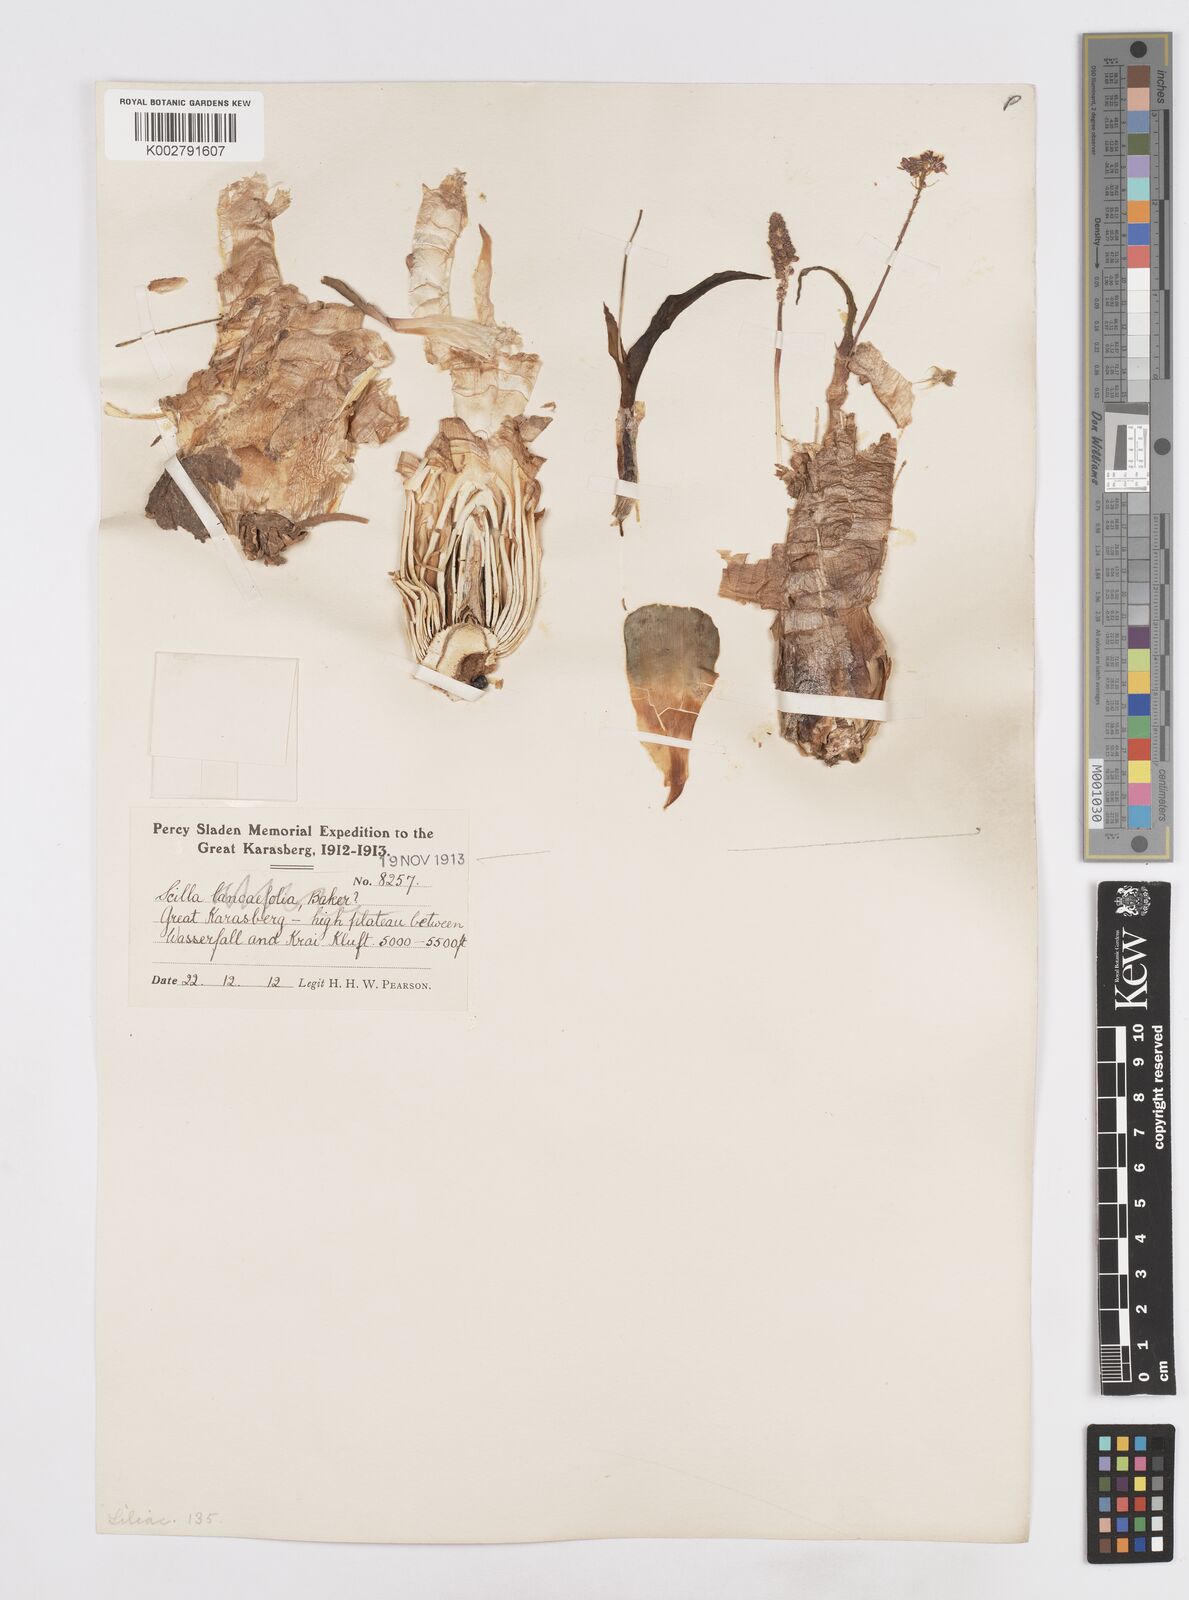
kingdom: Plantae
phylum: Tracheophyta
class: Liliopsida
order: Asparagales
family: Asparagaceae
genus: Scilla
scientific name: Scilla
